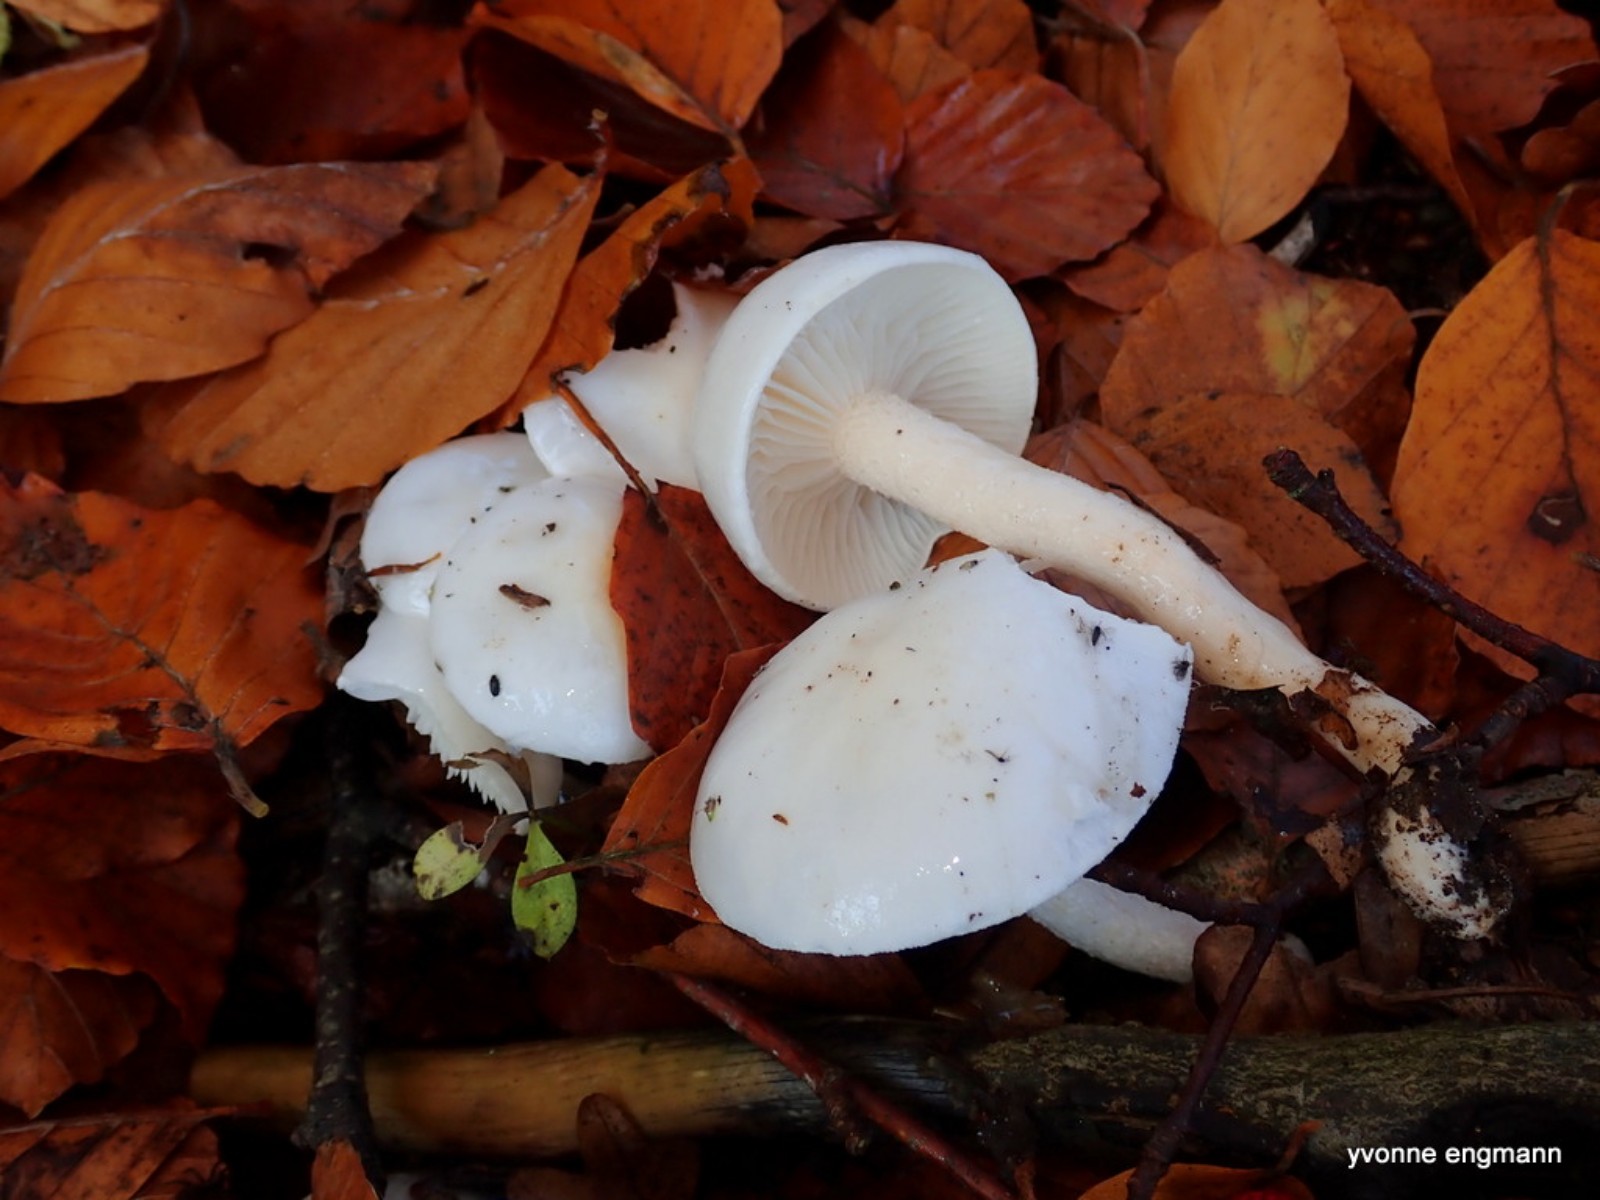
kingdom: Fungi
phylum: Basidiomycota
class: Agaricomycetes
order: Agaricales
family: Hygrophoraceae
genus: Hygrophorus
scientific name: Hygrophorus eburneus
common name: elfenbens-sneglehat
